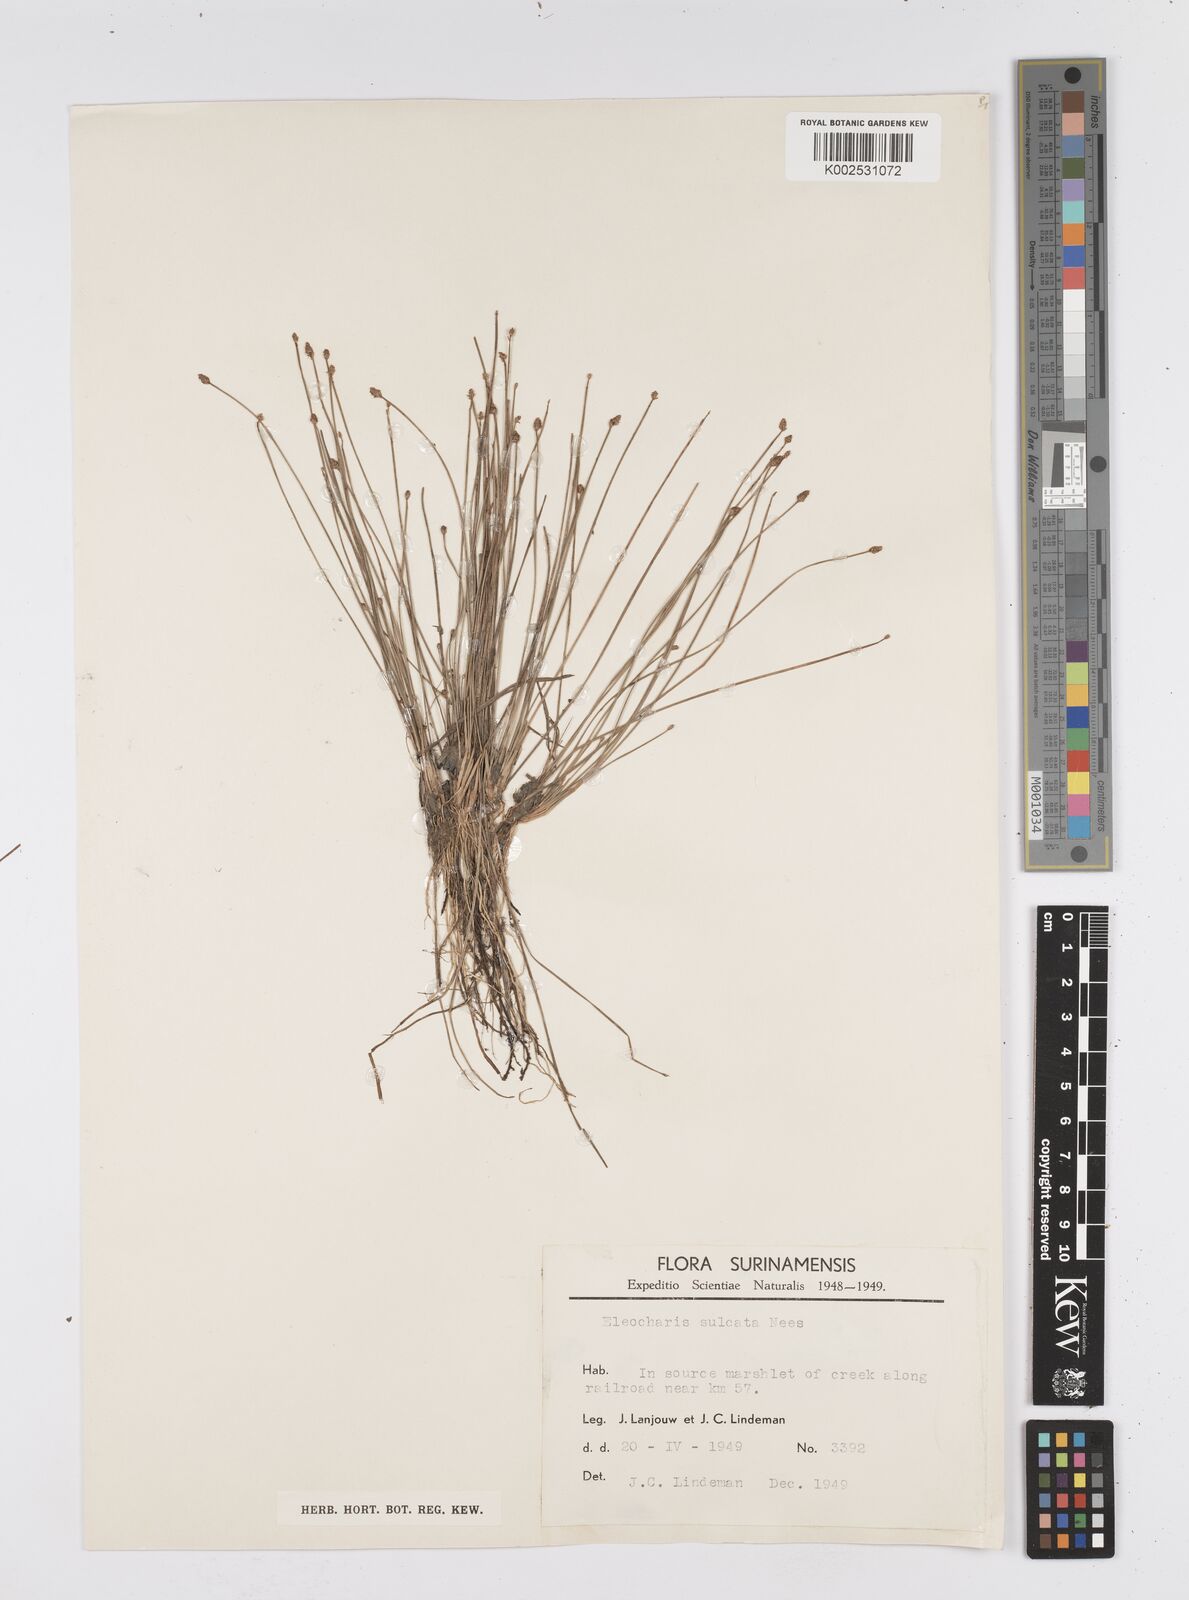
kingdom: Plantae
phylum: Tracheophyta
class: Liliopsida
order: Poales
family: Cyperaceae
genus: Eleocharis
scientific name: Eleocharis filiculmis
